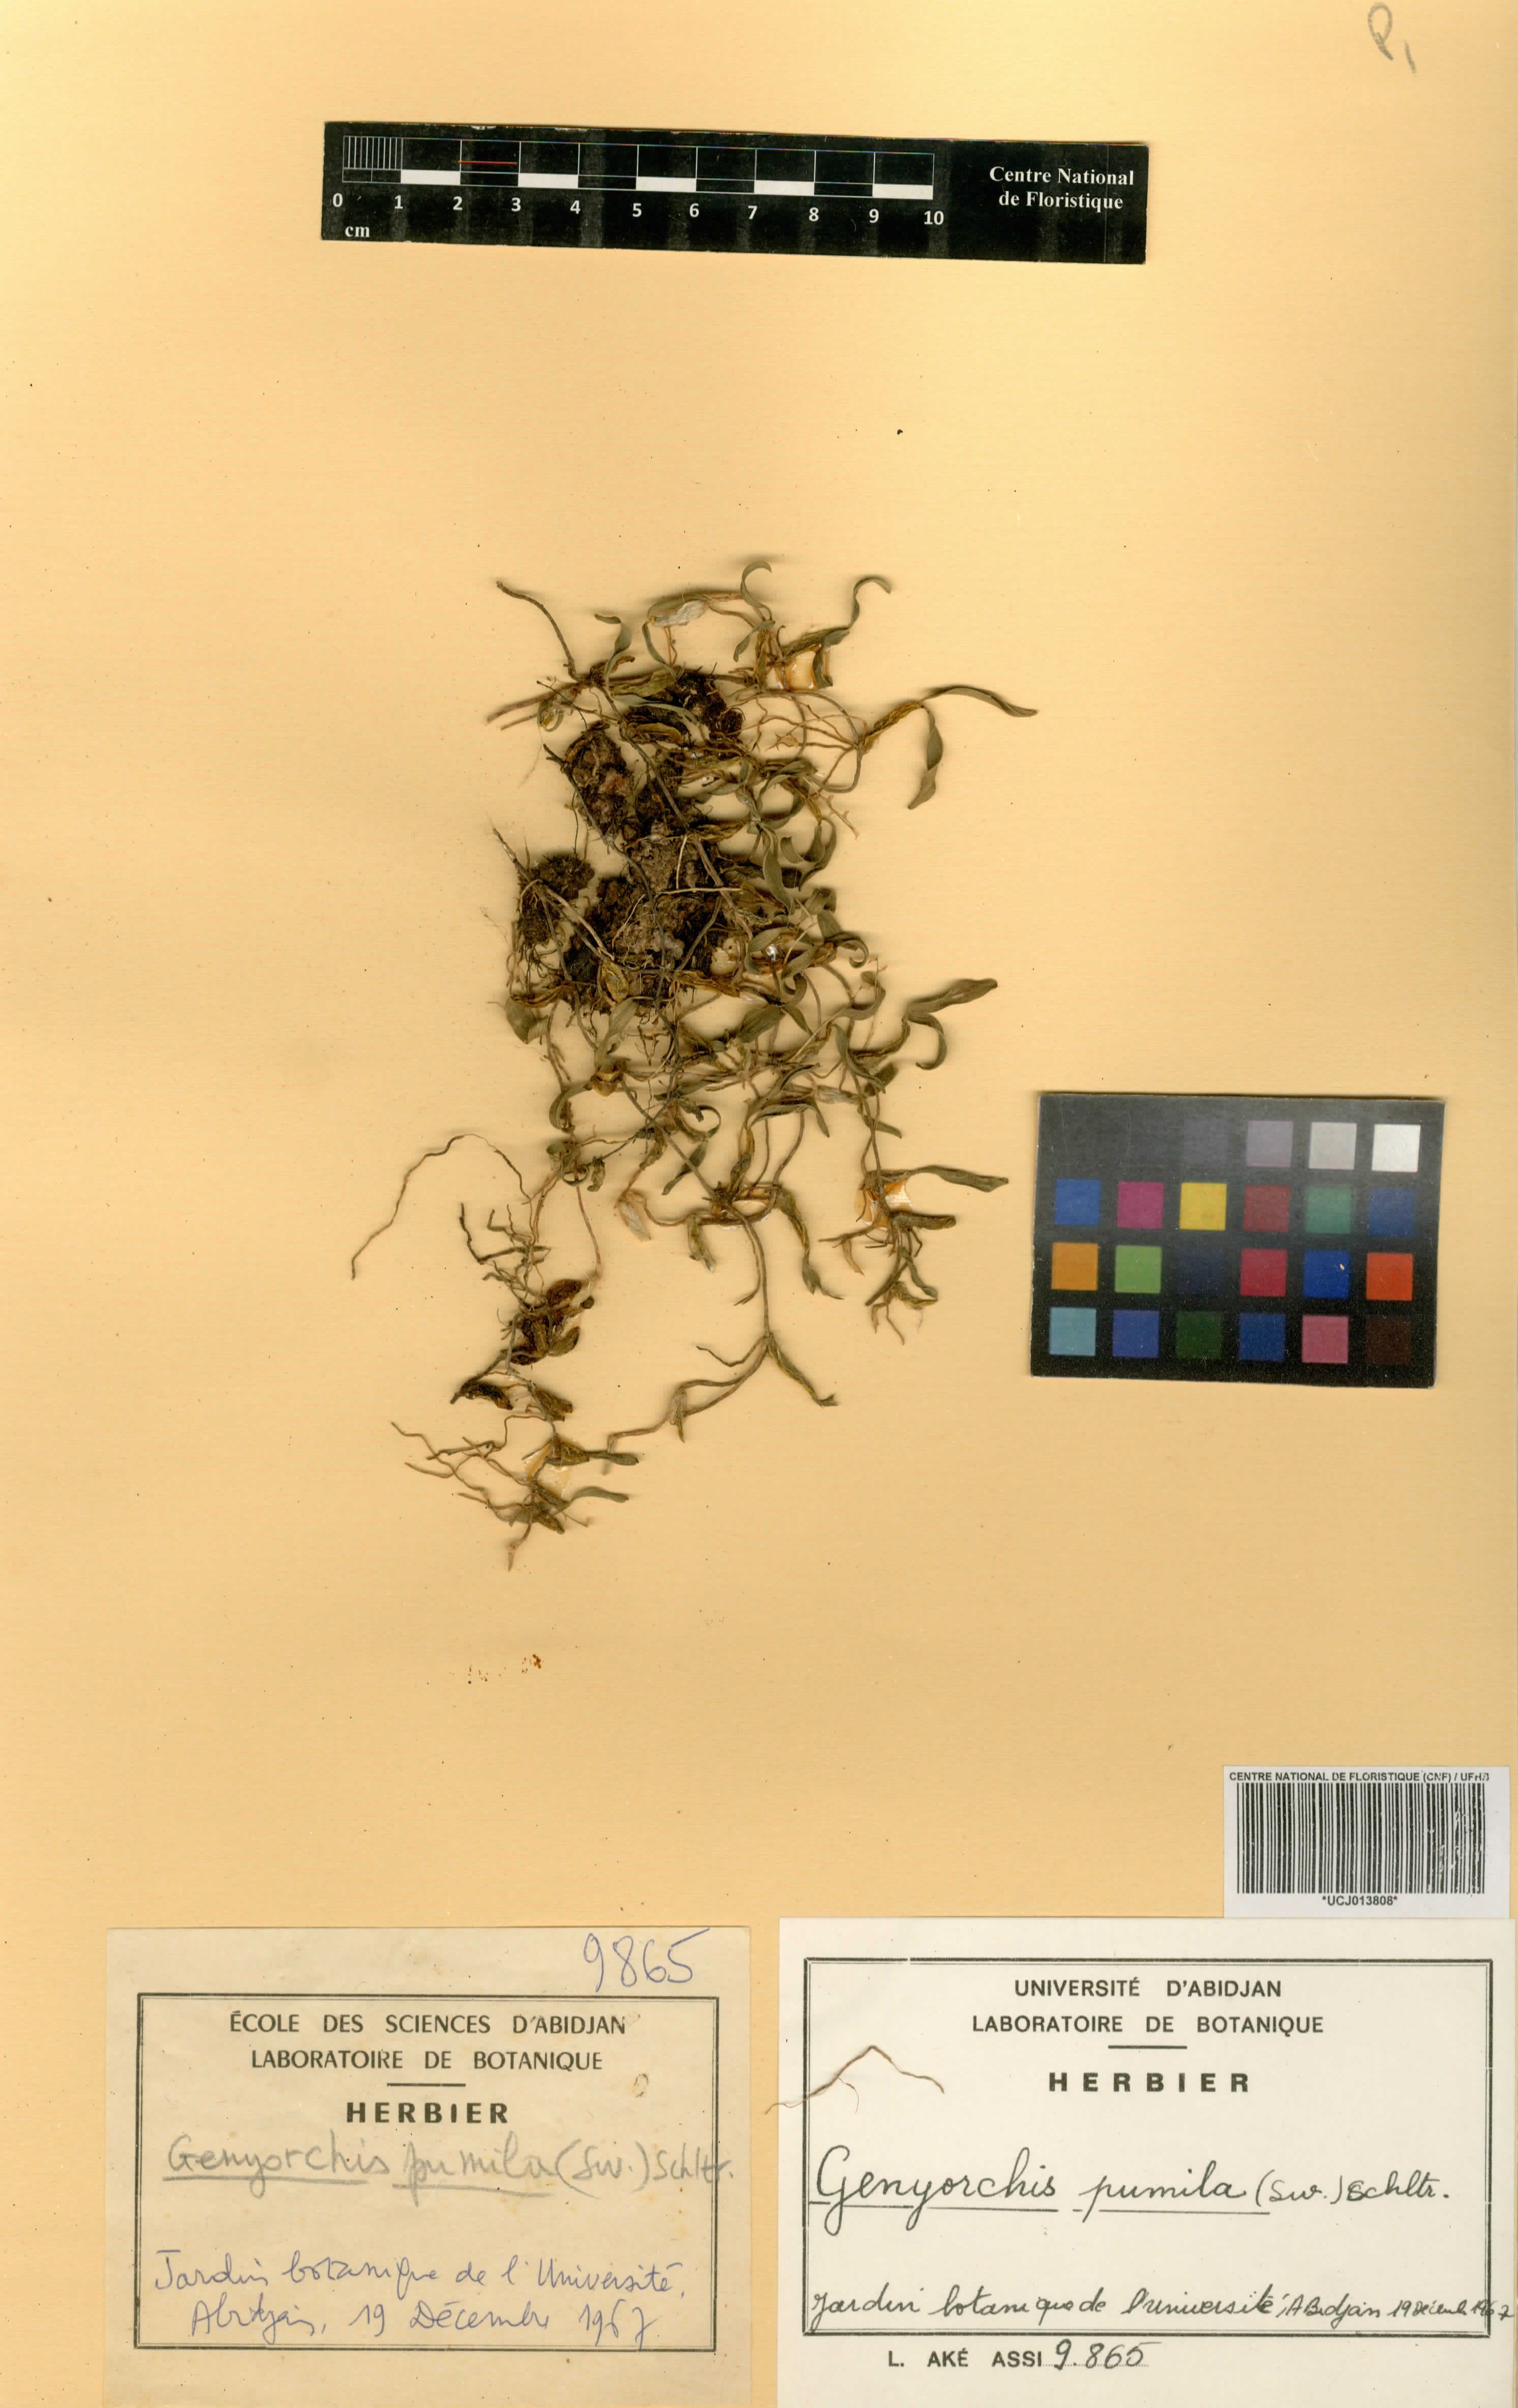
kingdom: Plantae
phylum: Tracheophyta
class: Liliopsida
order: Asparagales
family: Orchidaceae
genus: Bulbophyllum
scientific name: Bulbophyllum pumilum
